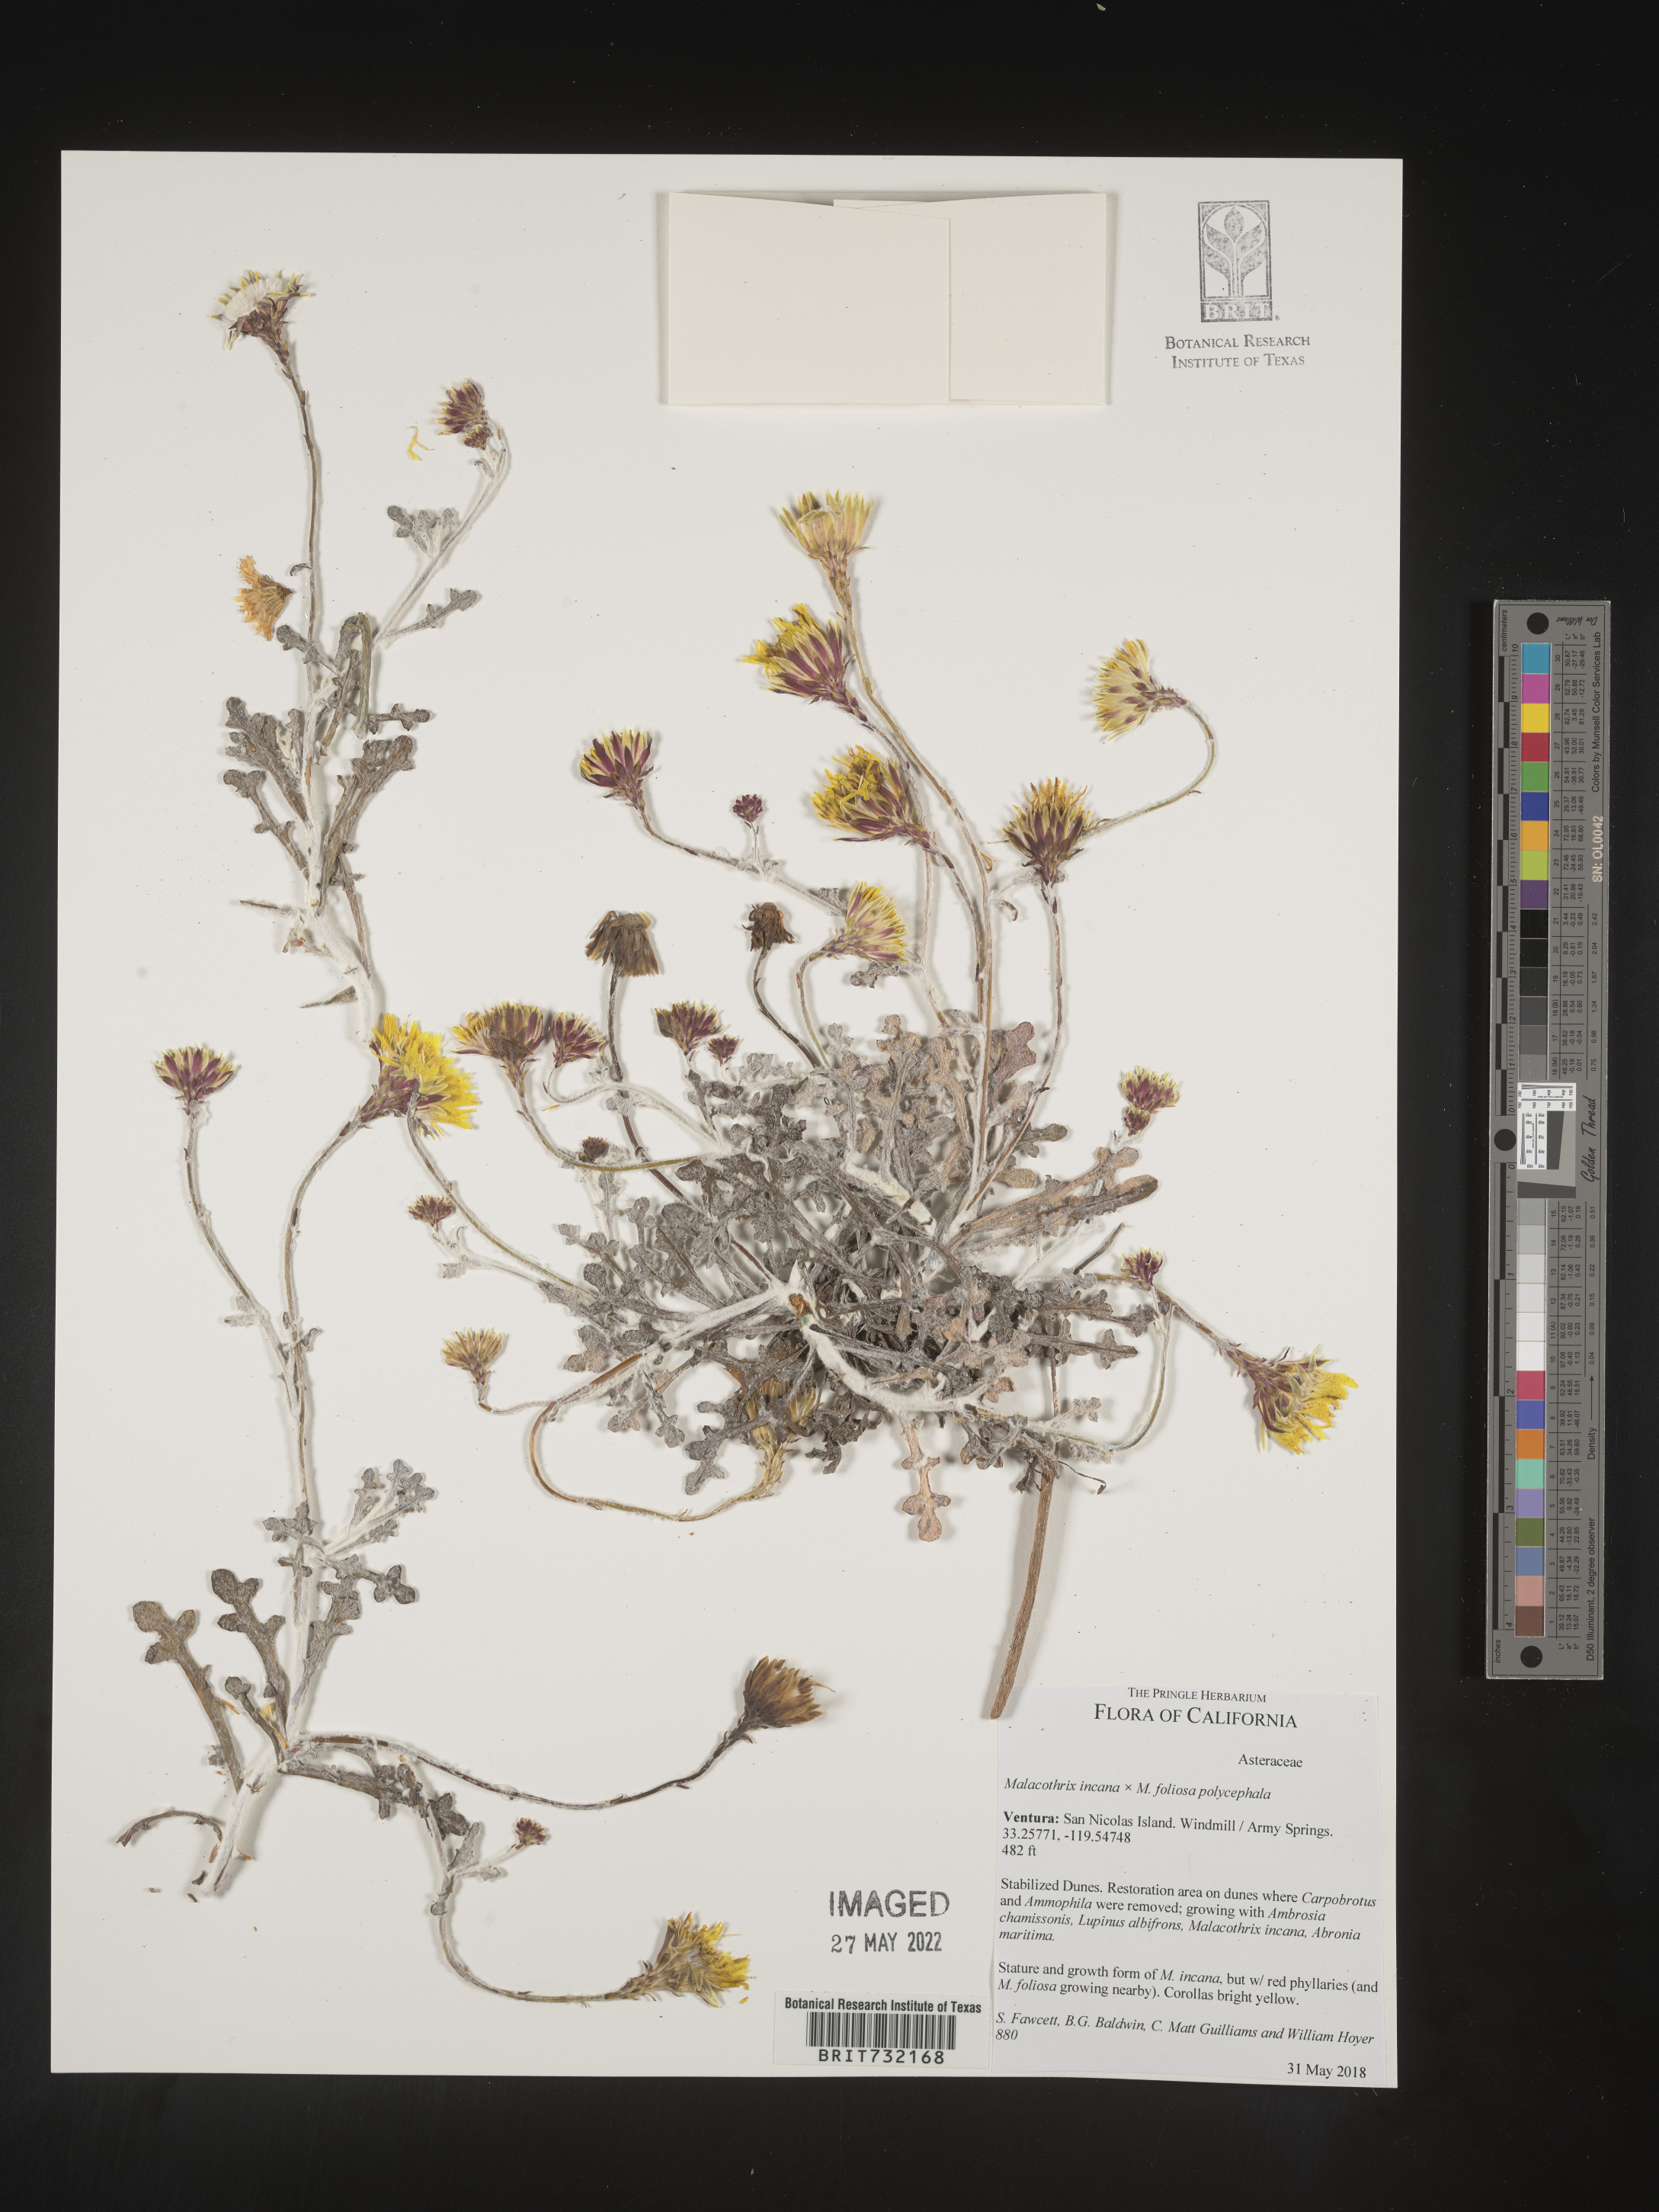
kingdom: Plantae
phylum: Tracheophyta
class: Magnoliopsida
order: Asterales
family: Asteraceae
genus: Malacothrix
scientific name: Malacothrix
